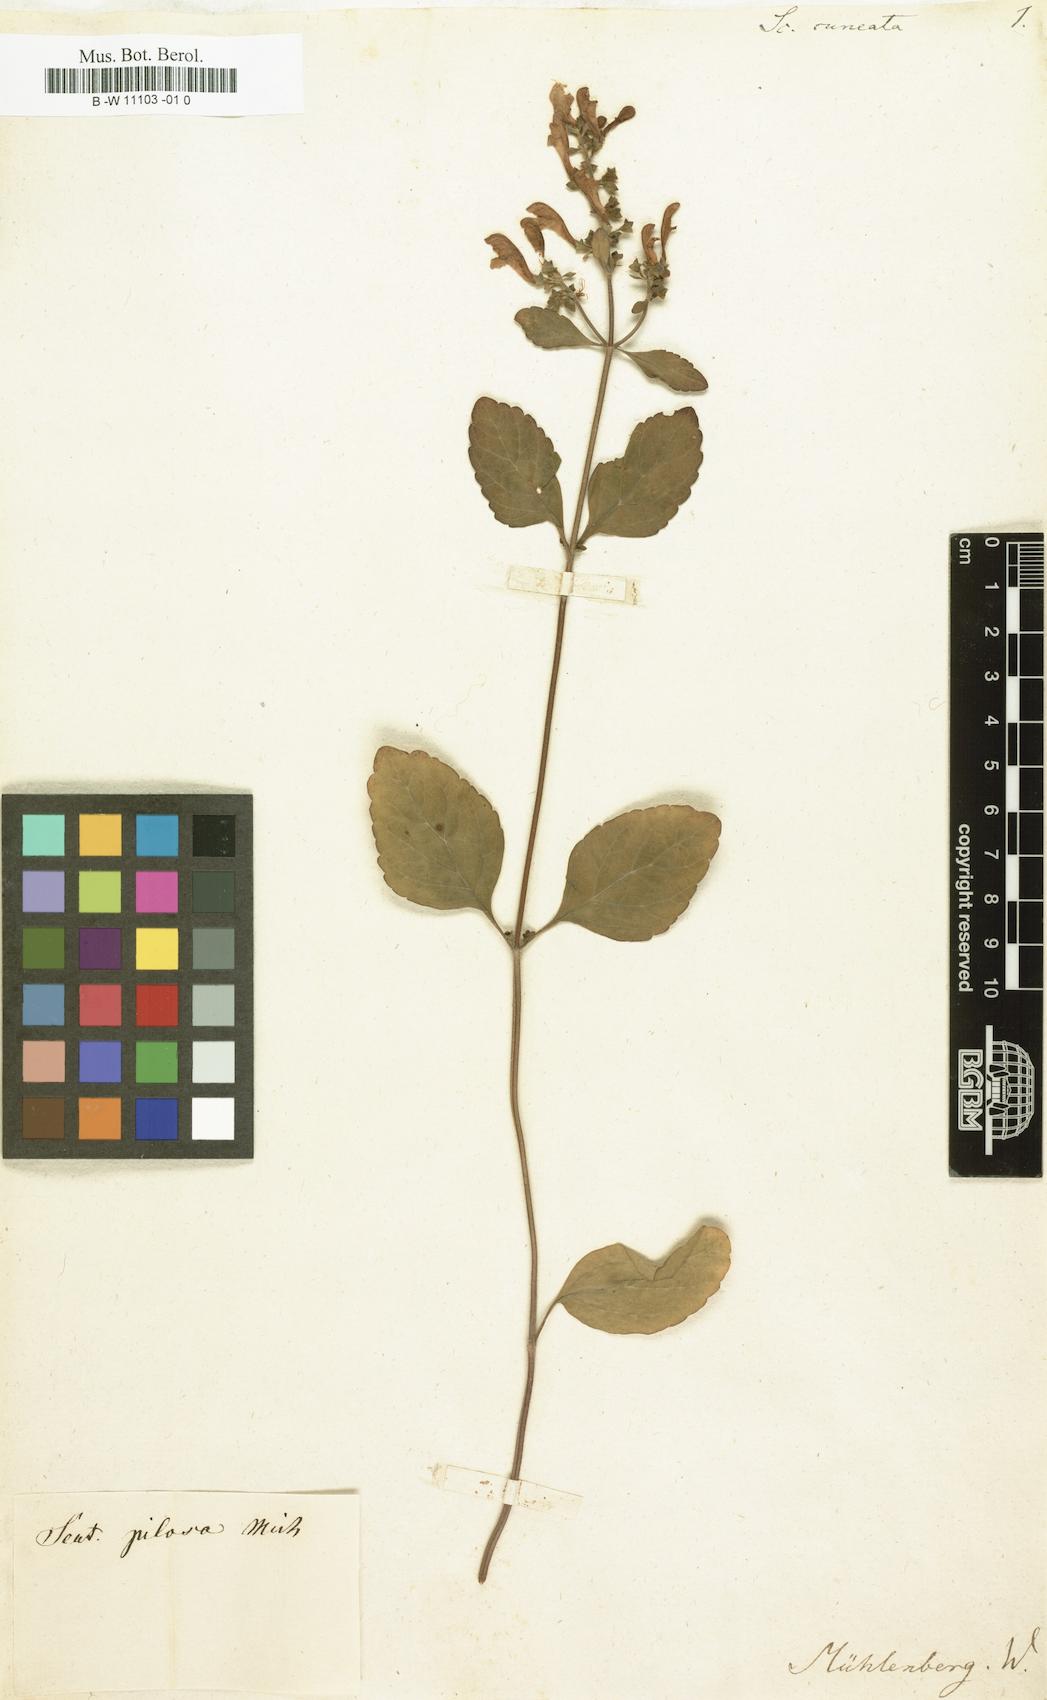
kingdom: Plantae
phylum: Tracheophyta
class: Magnoliopsida
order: Lamiales
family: Lamiaceae
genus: Scutellaria
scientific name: Scutellaria elliptica
